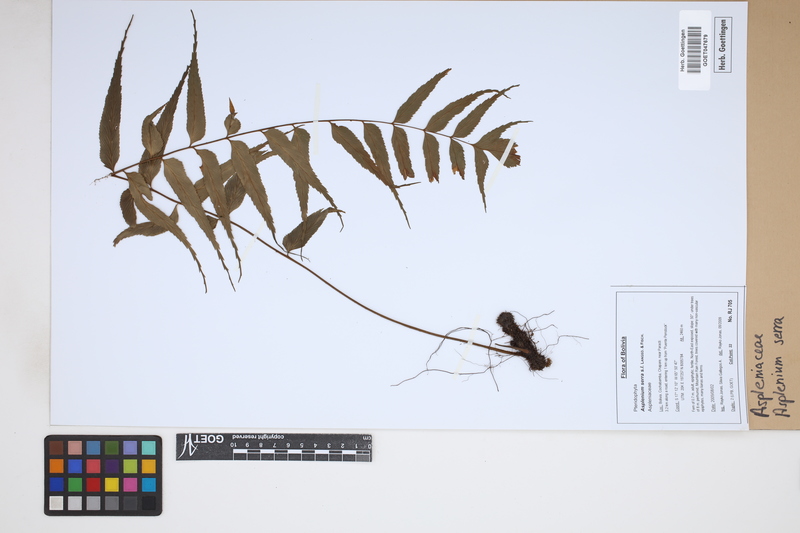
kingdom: Plantae
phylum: Tracheophyta
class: Polypodiopsida
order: Polypodiales
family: Aspleniaceae
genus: Asplenium
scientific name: Asplenium serra
